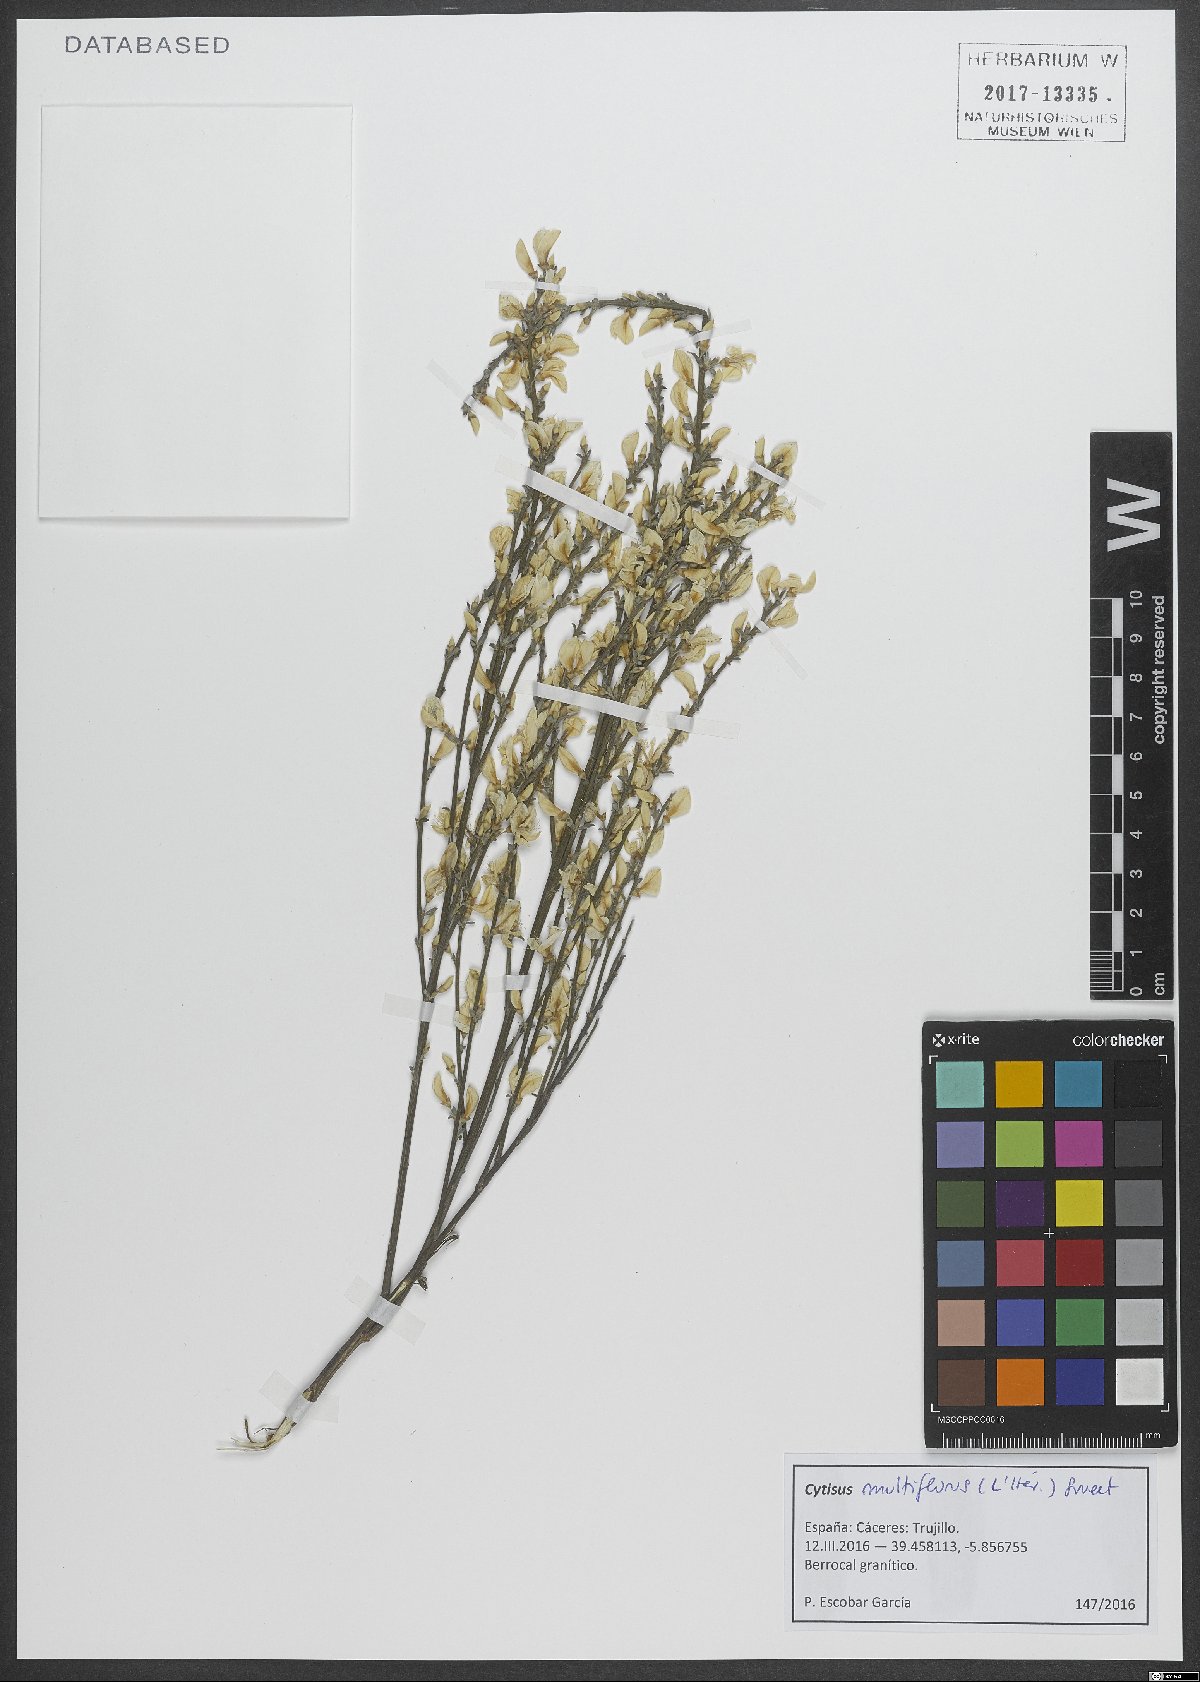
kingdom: Plantae
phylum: Tracheophyta
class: Magnoliopsida
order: Fabales
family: Fabaceae
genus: Cytisus
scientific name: Cytisus multiflorus
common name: White broom
